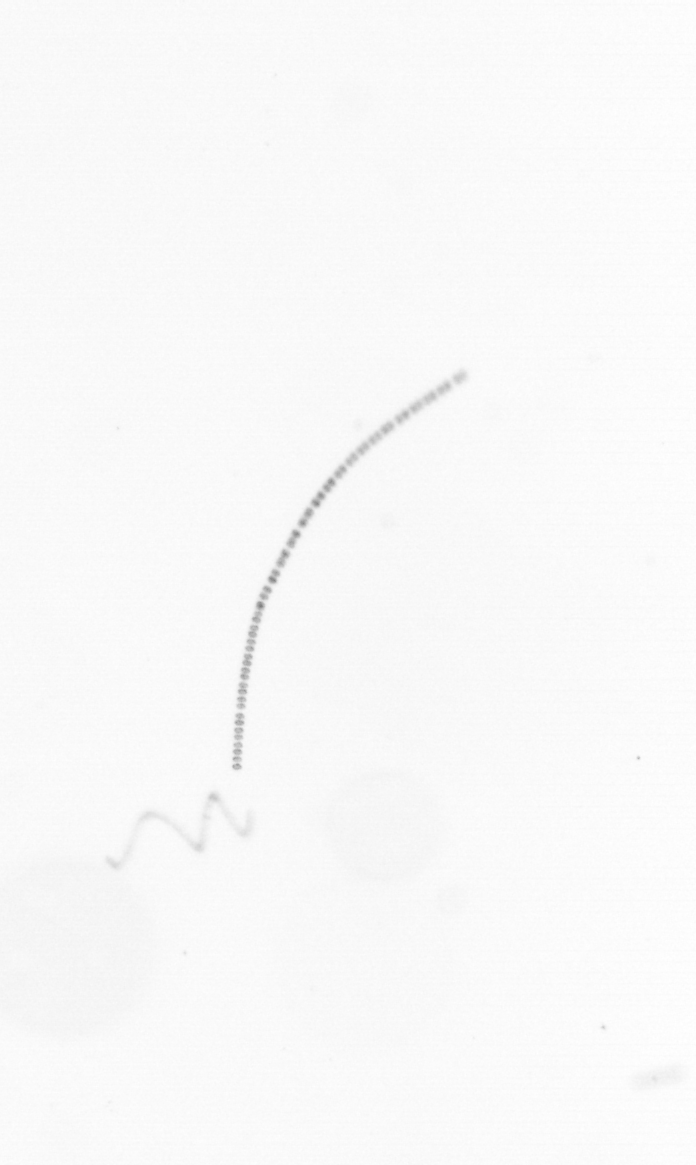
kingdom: Chromista
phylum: Ochrophyta
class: Bacillariophyceae
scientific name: Bacillariophyceae
